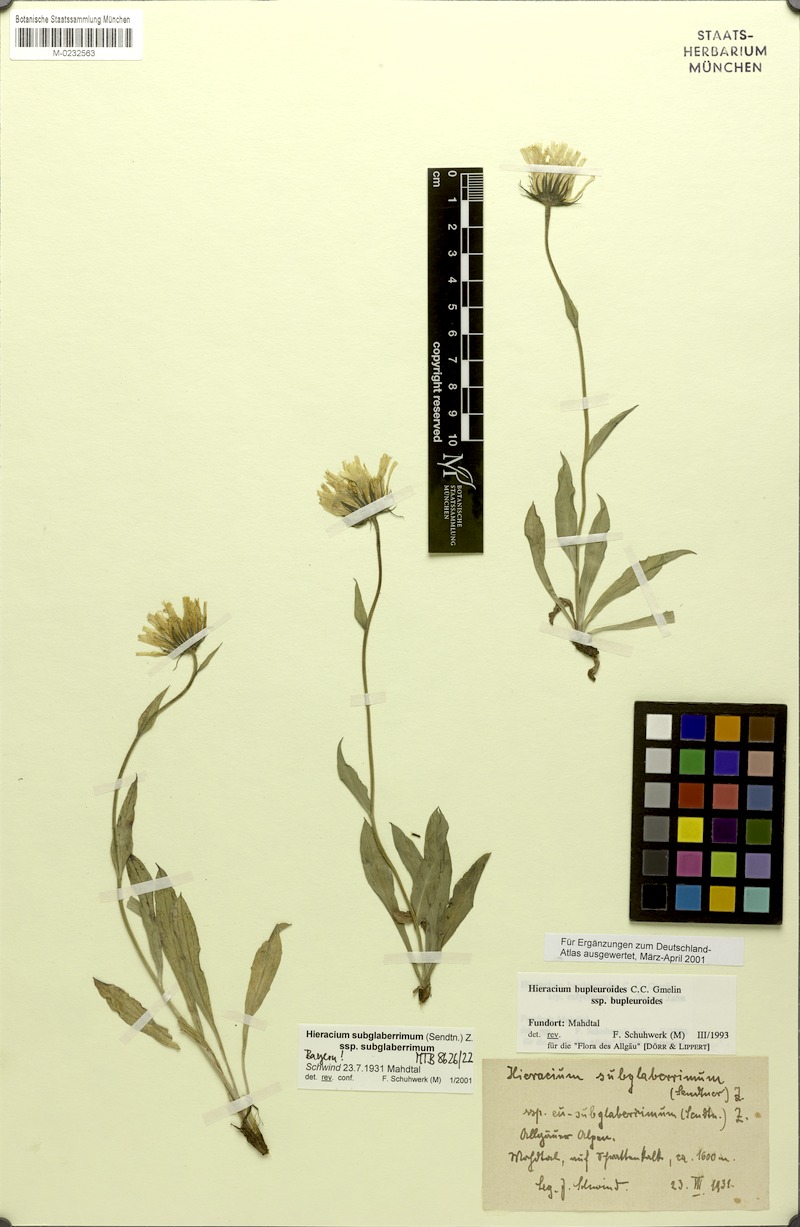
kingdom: Plantae
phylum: Tracheophyta
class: Magnoliopsida
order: Asterales
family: Asteraceae
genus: Hieracium
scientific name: Hieracium subglaberrimum
